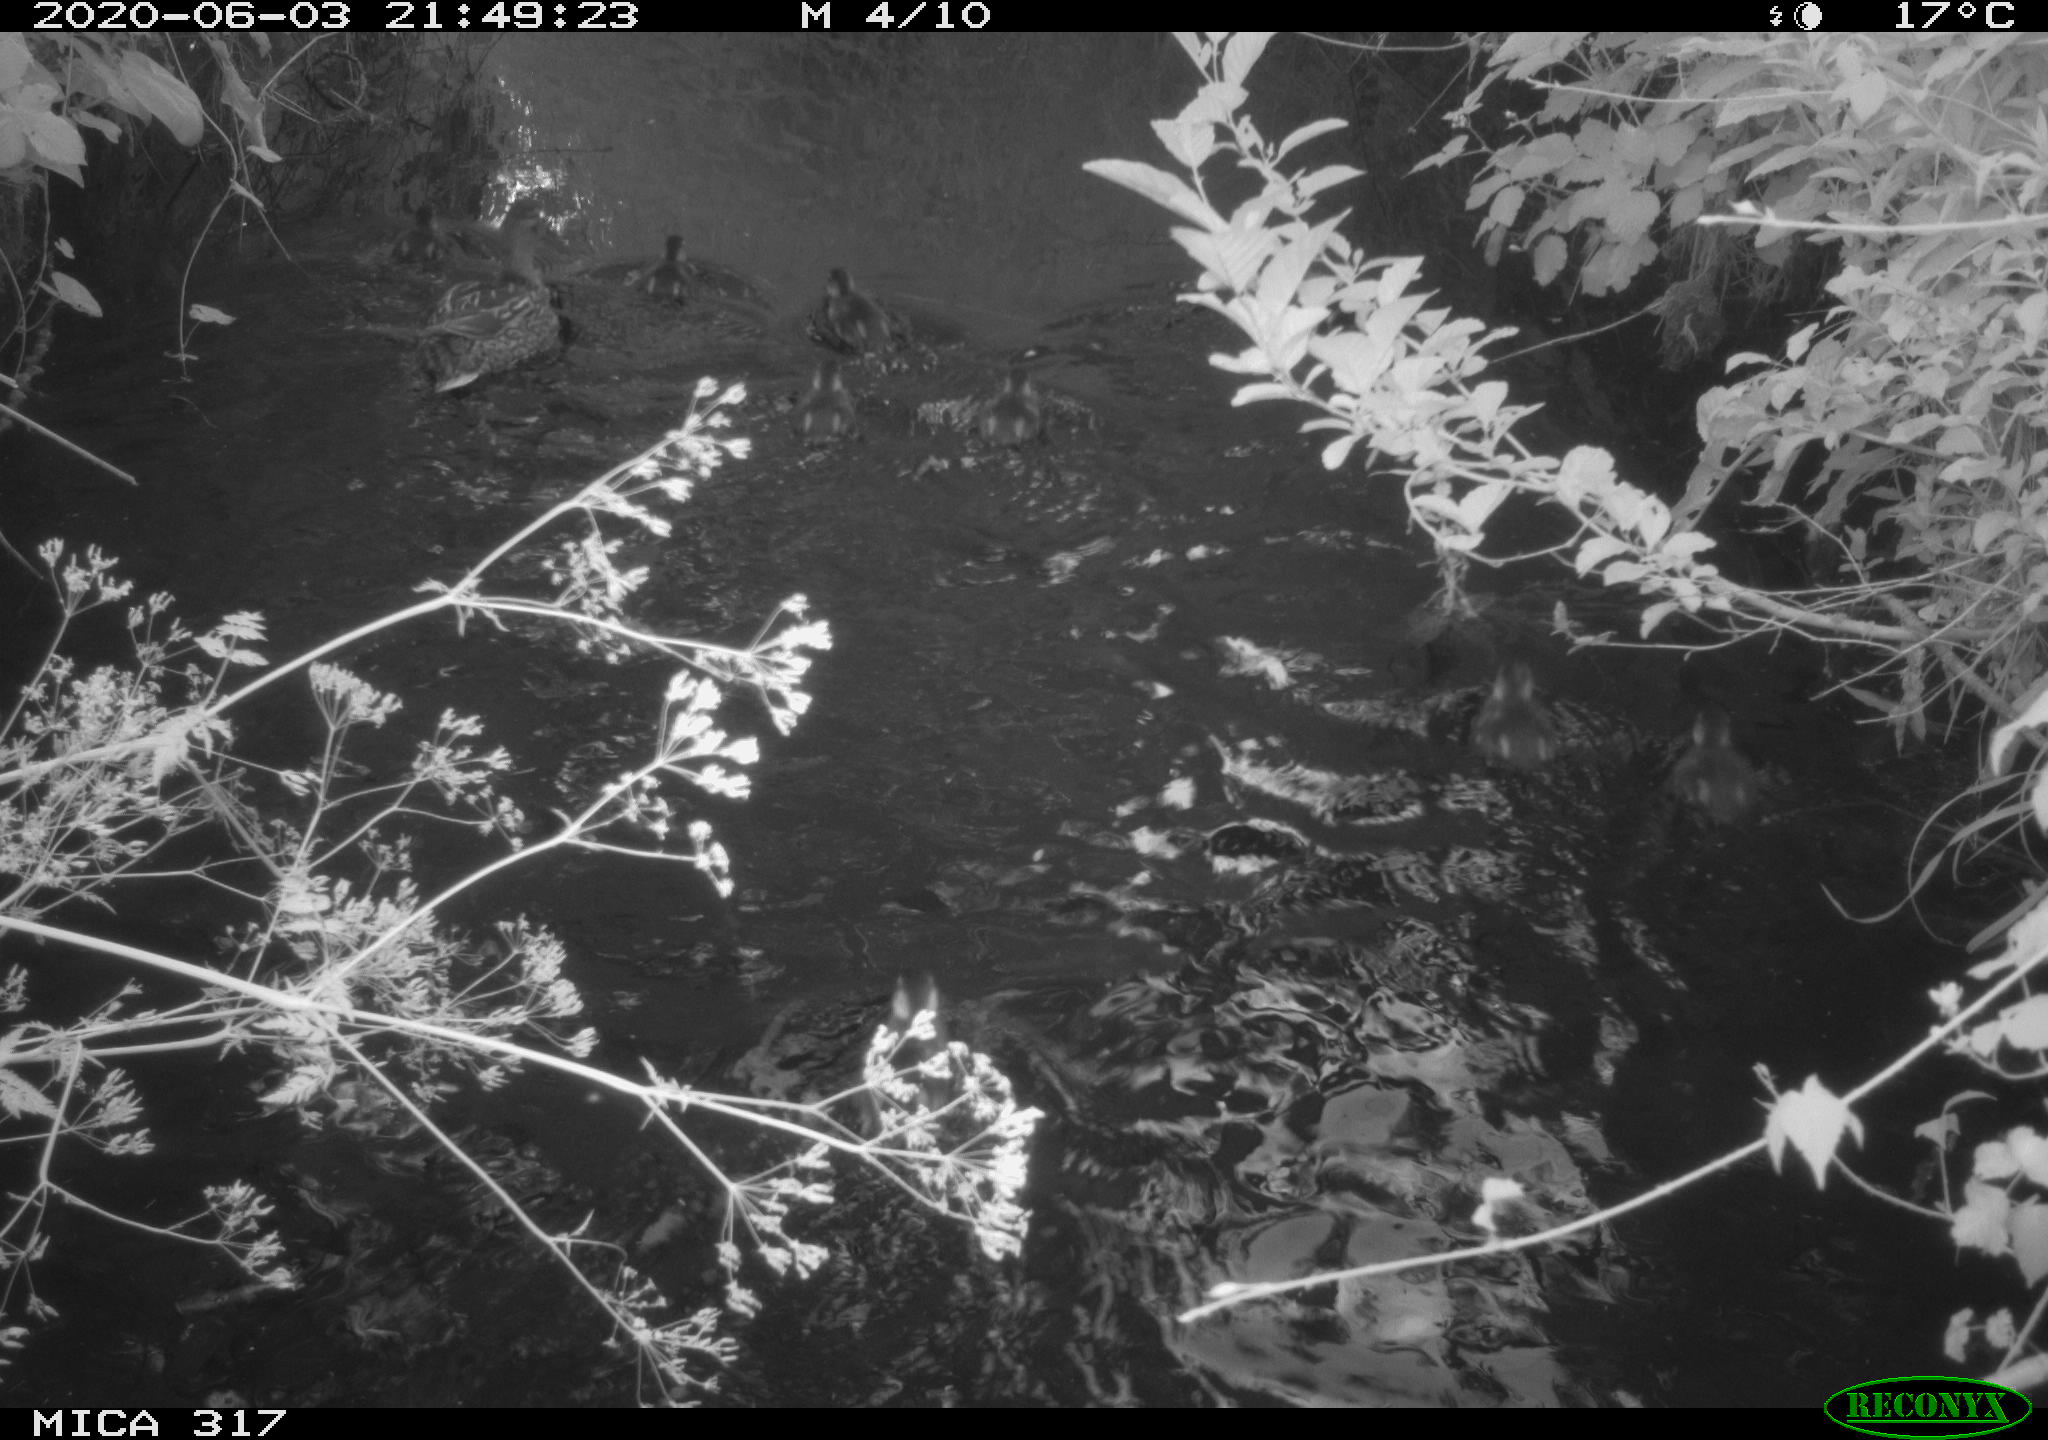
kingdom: Animalia
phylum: Chordata
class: Aves
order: Anseriformes
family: Anatidae
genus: Anas
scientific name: Anas platyrhynchos
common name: Mallard
